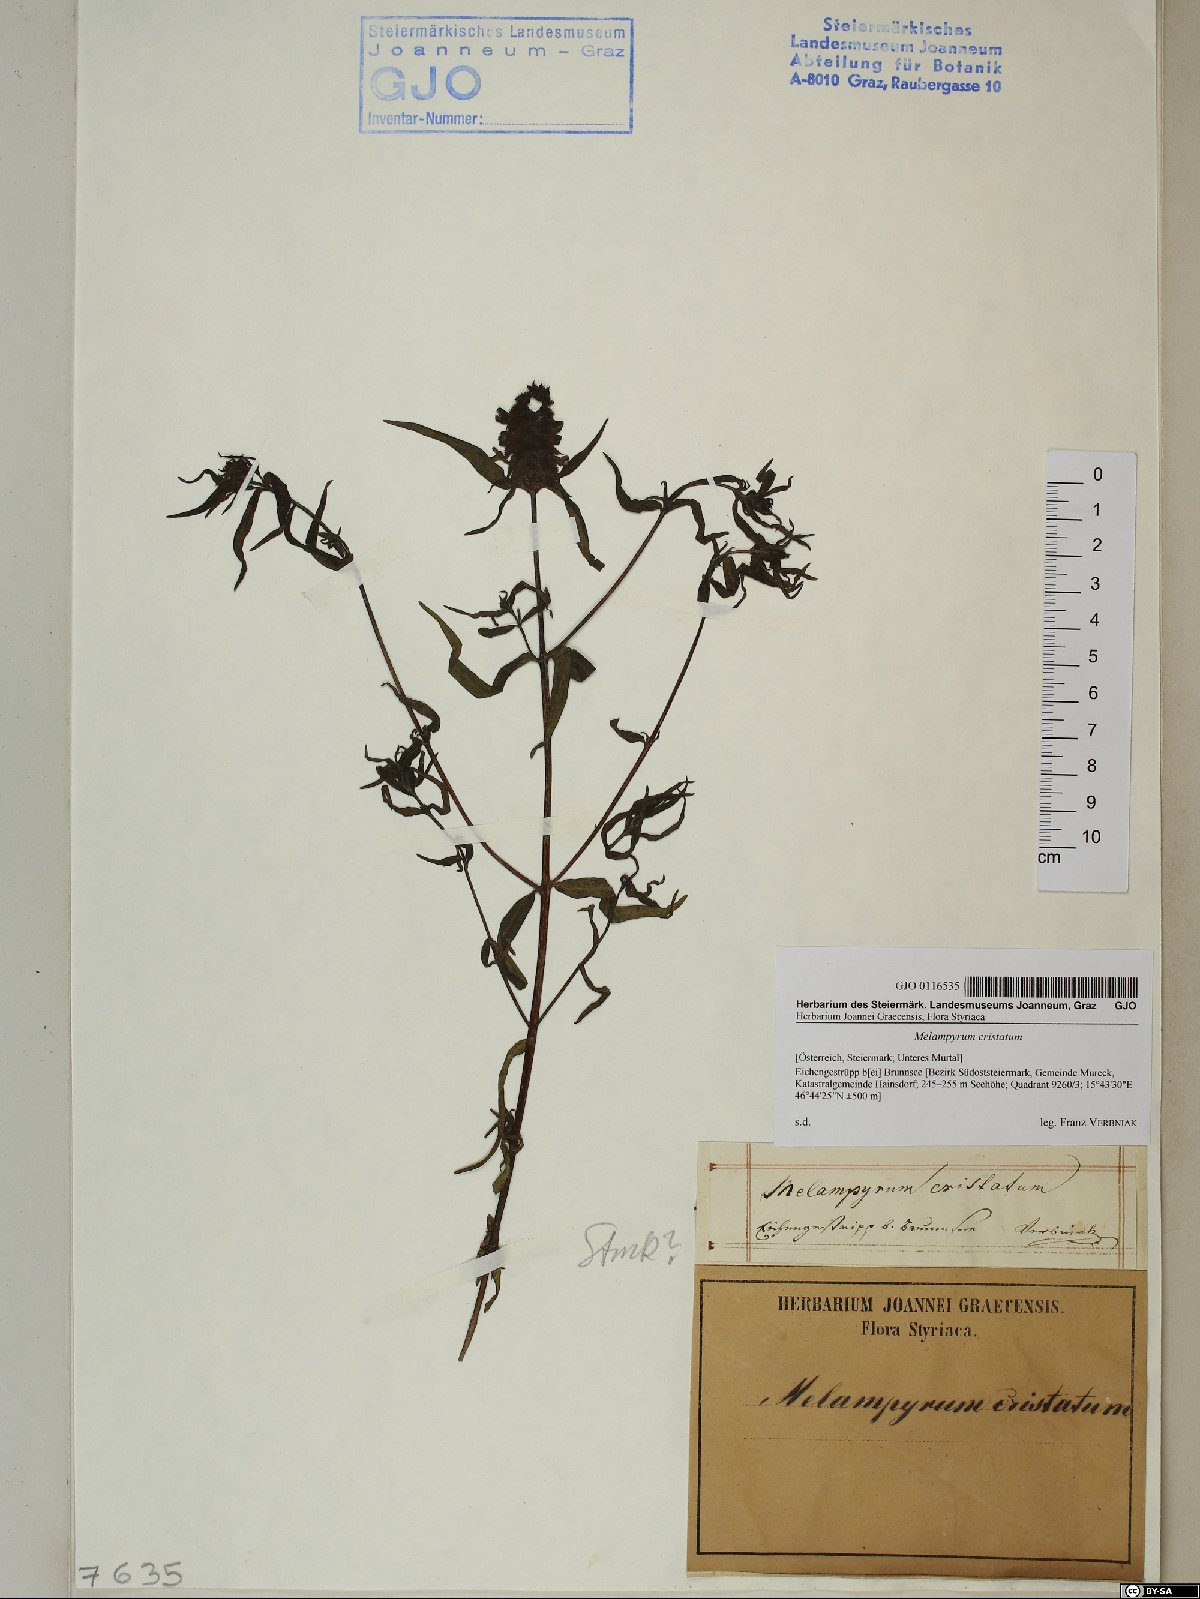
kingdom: Plantae
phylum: Tracheophyta
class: Magnoliopsida
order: Lamiales
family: Orobanchaceae
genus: Melampyrum
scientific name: Melampyrum cristatum
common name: Crested cow-wheat
